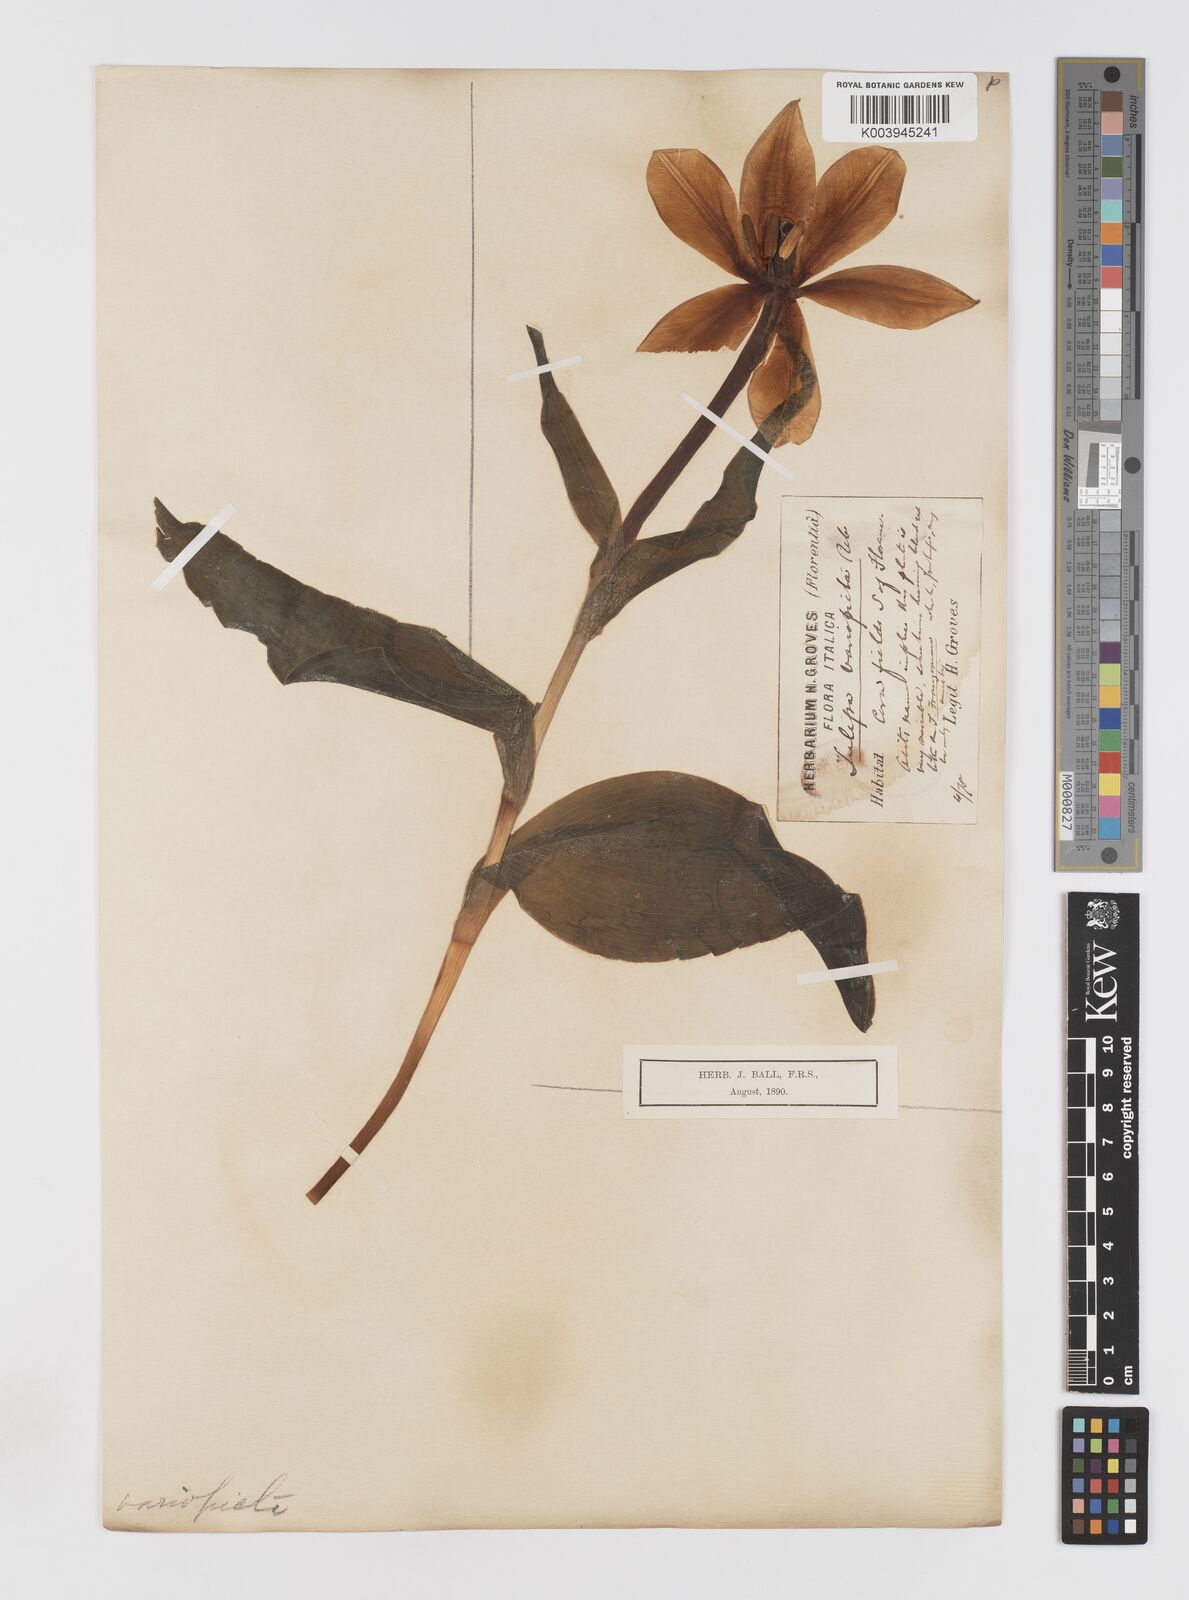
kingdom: Plantae
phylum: Tracheophyta
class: Liliopsida
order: Liliales
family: Liliaceae
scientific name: Liliaceae
